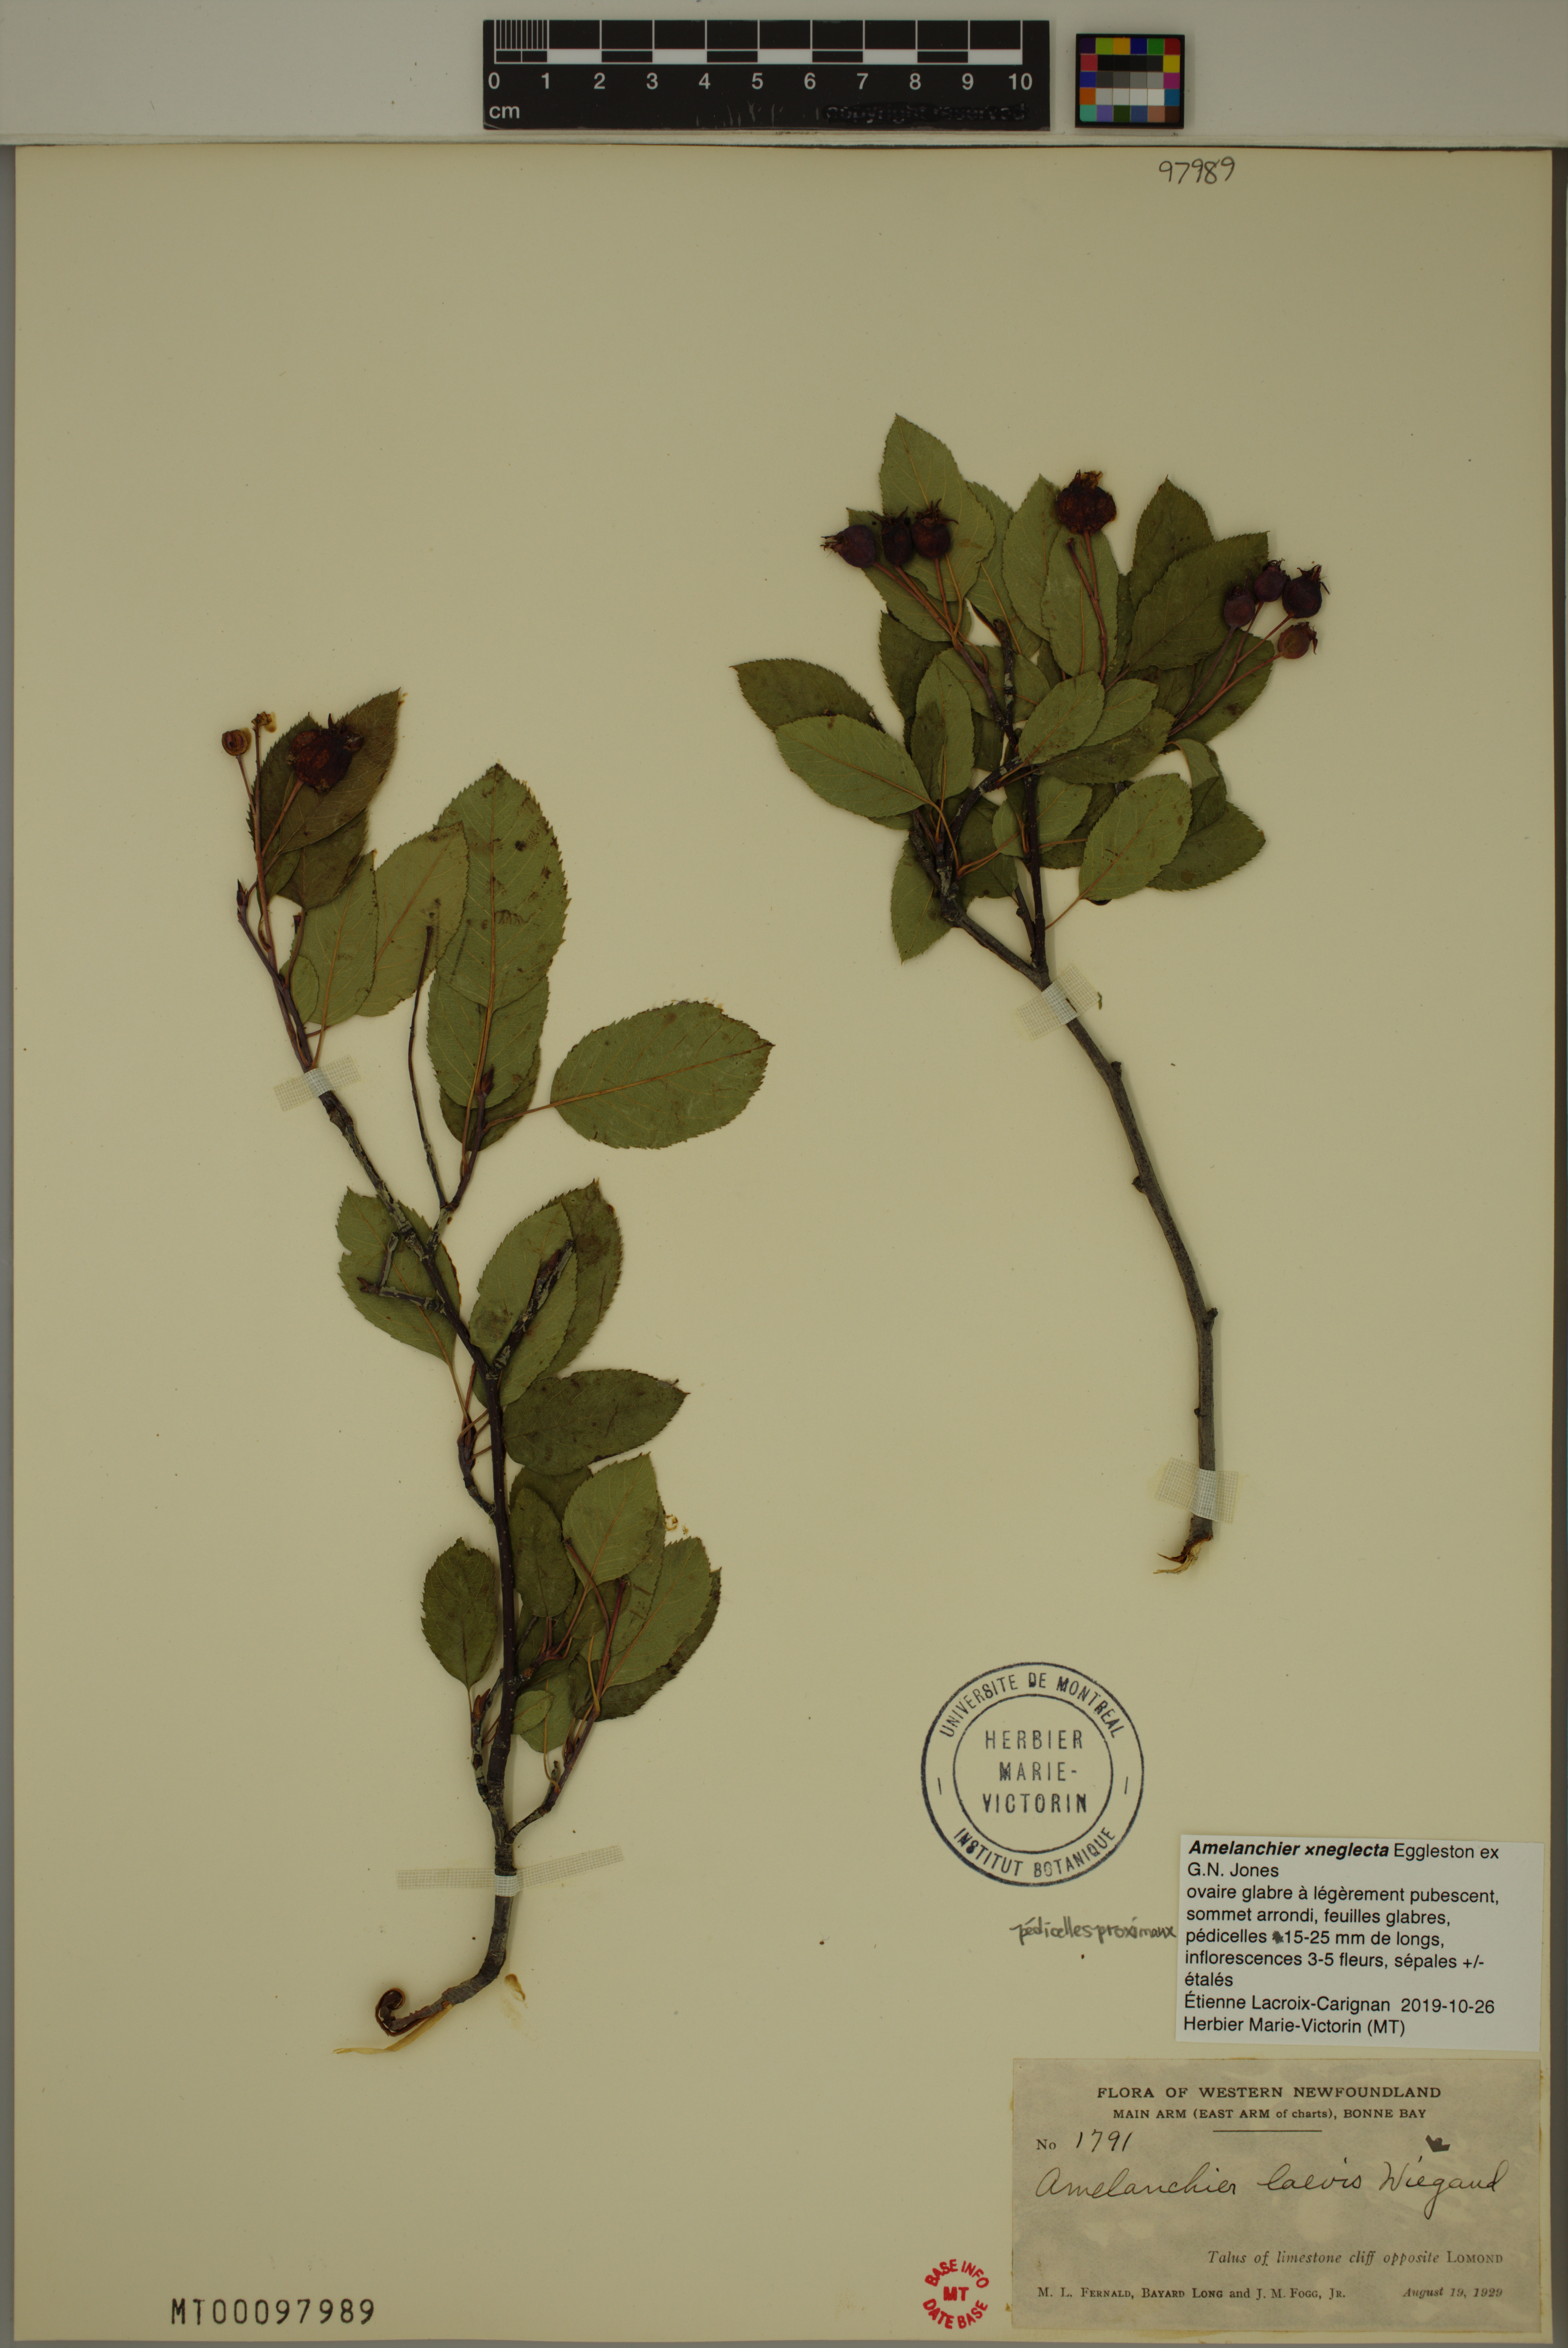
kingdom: Plantae
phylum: Tracheophyta
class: Magnoliopsida
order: Rosales
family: Rosaceae
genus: Amelanchier
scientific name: Amelanchier neglecta
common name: Overlooked serviceberry
